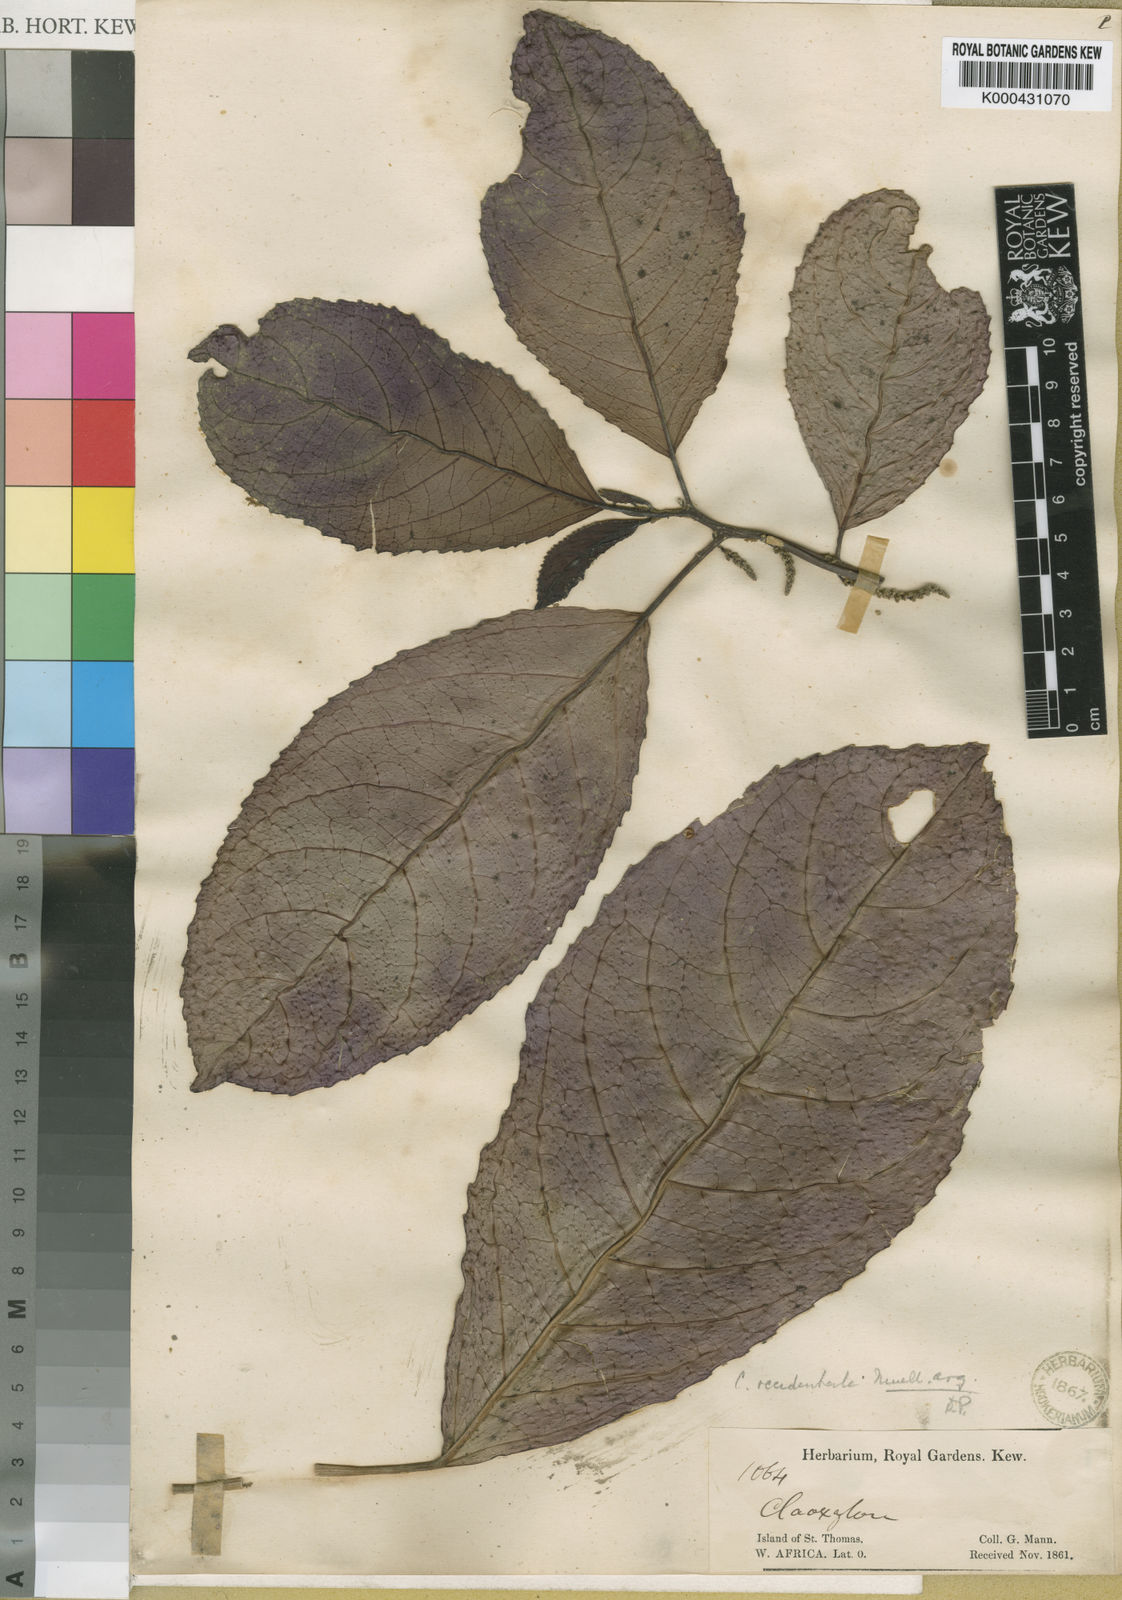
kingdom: Plantae
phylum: Tracheophyta
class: Magnoliopsida
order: Malpighiales
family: Euphorbiaceae
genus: Discoclaoxylon
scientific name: Discoclaoxylon
